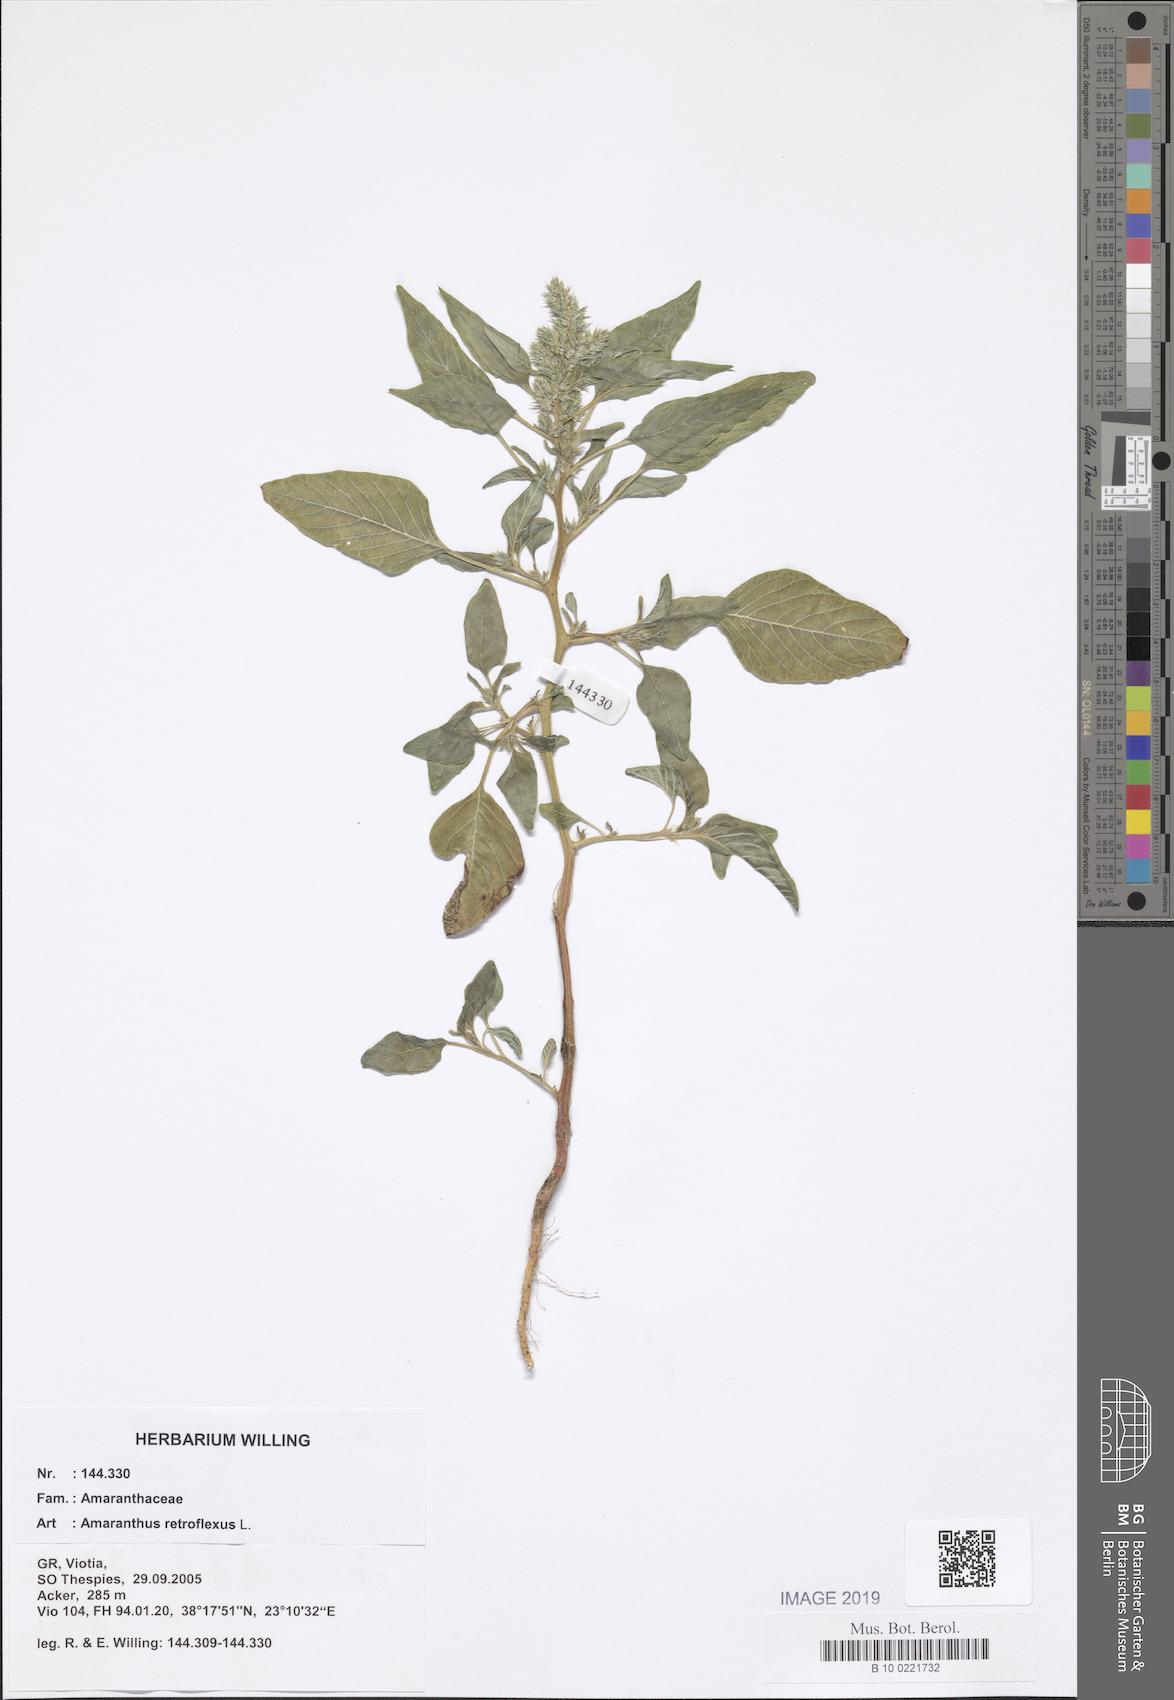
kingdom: Plantae
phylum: Tracheophyta
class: Magnoliopsida
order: Caryophyllales
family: Amaranthaceae
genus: Amaranthus
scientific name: Amaranthus retroflexus
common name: Redroot amaranth
